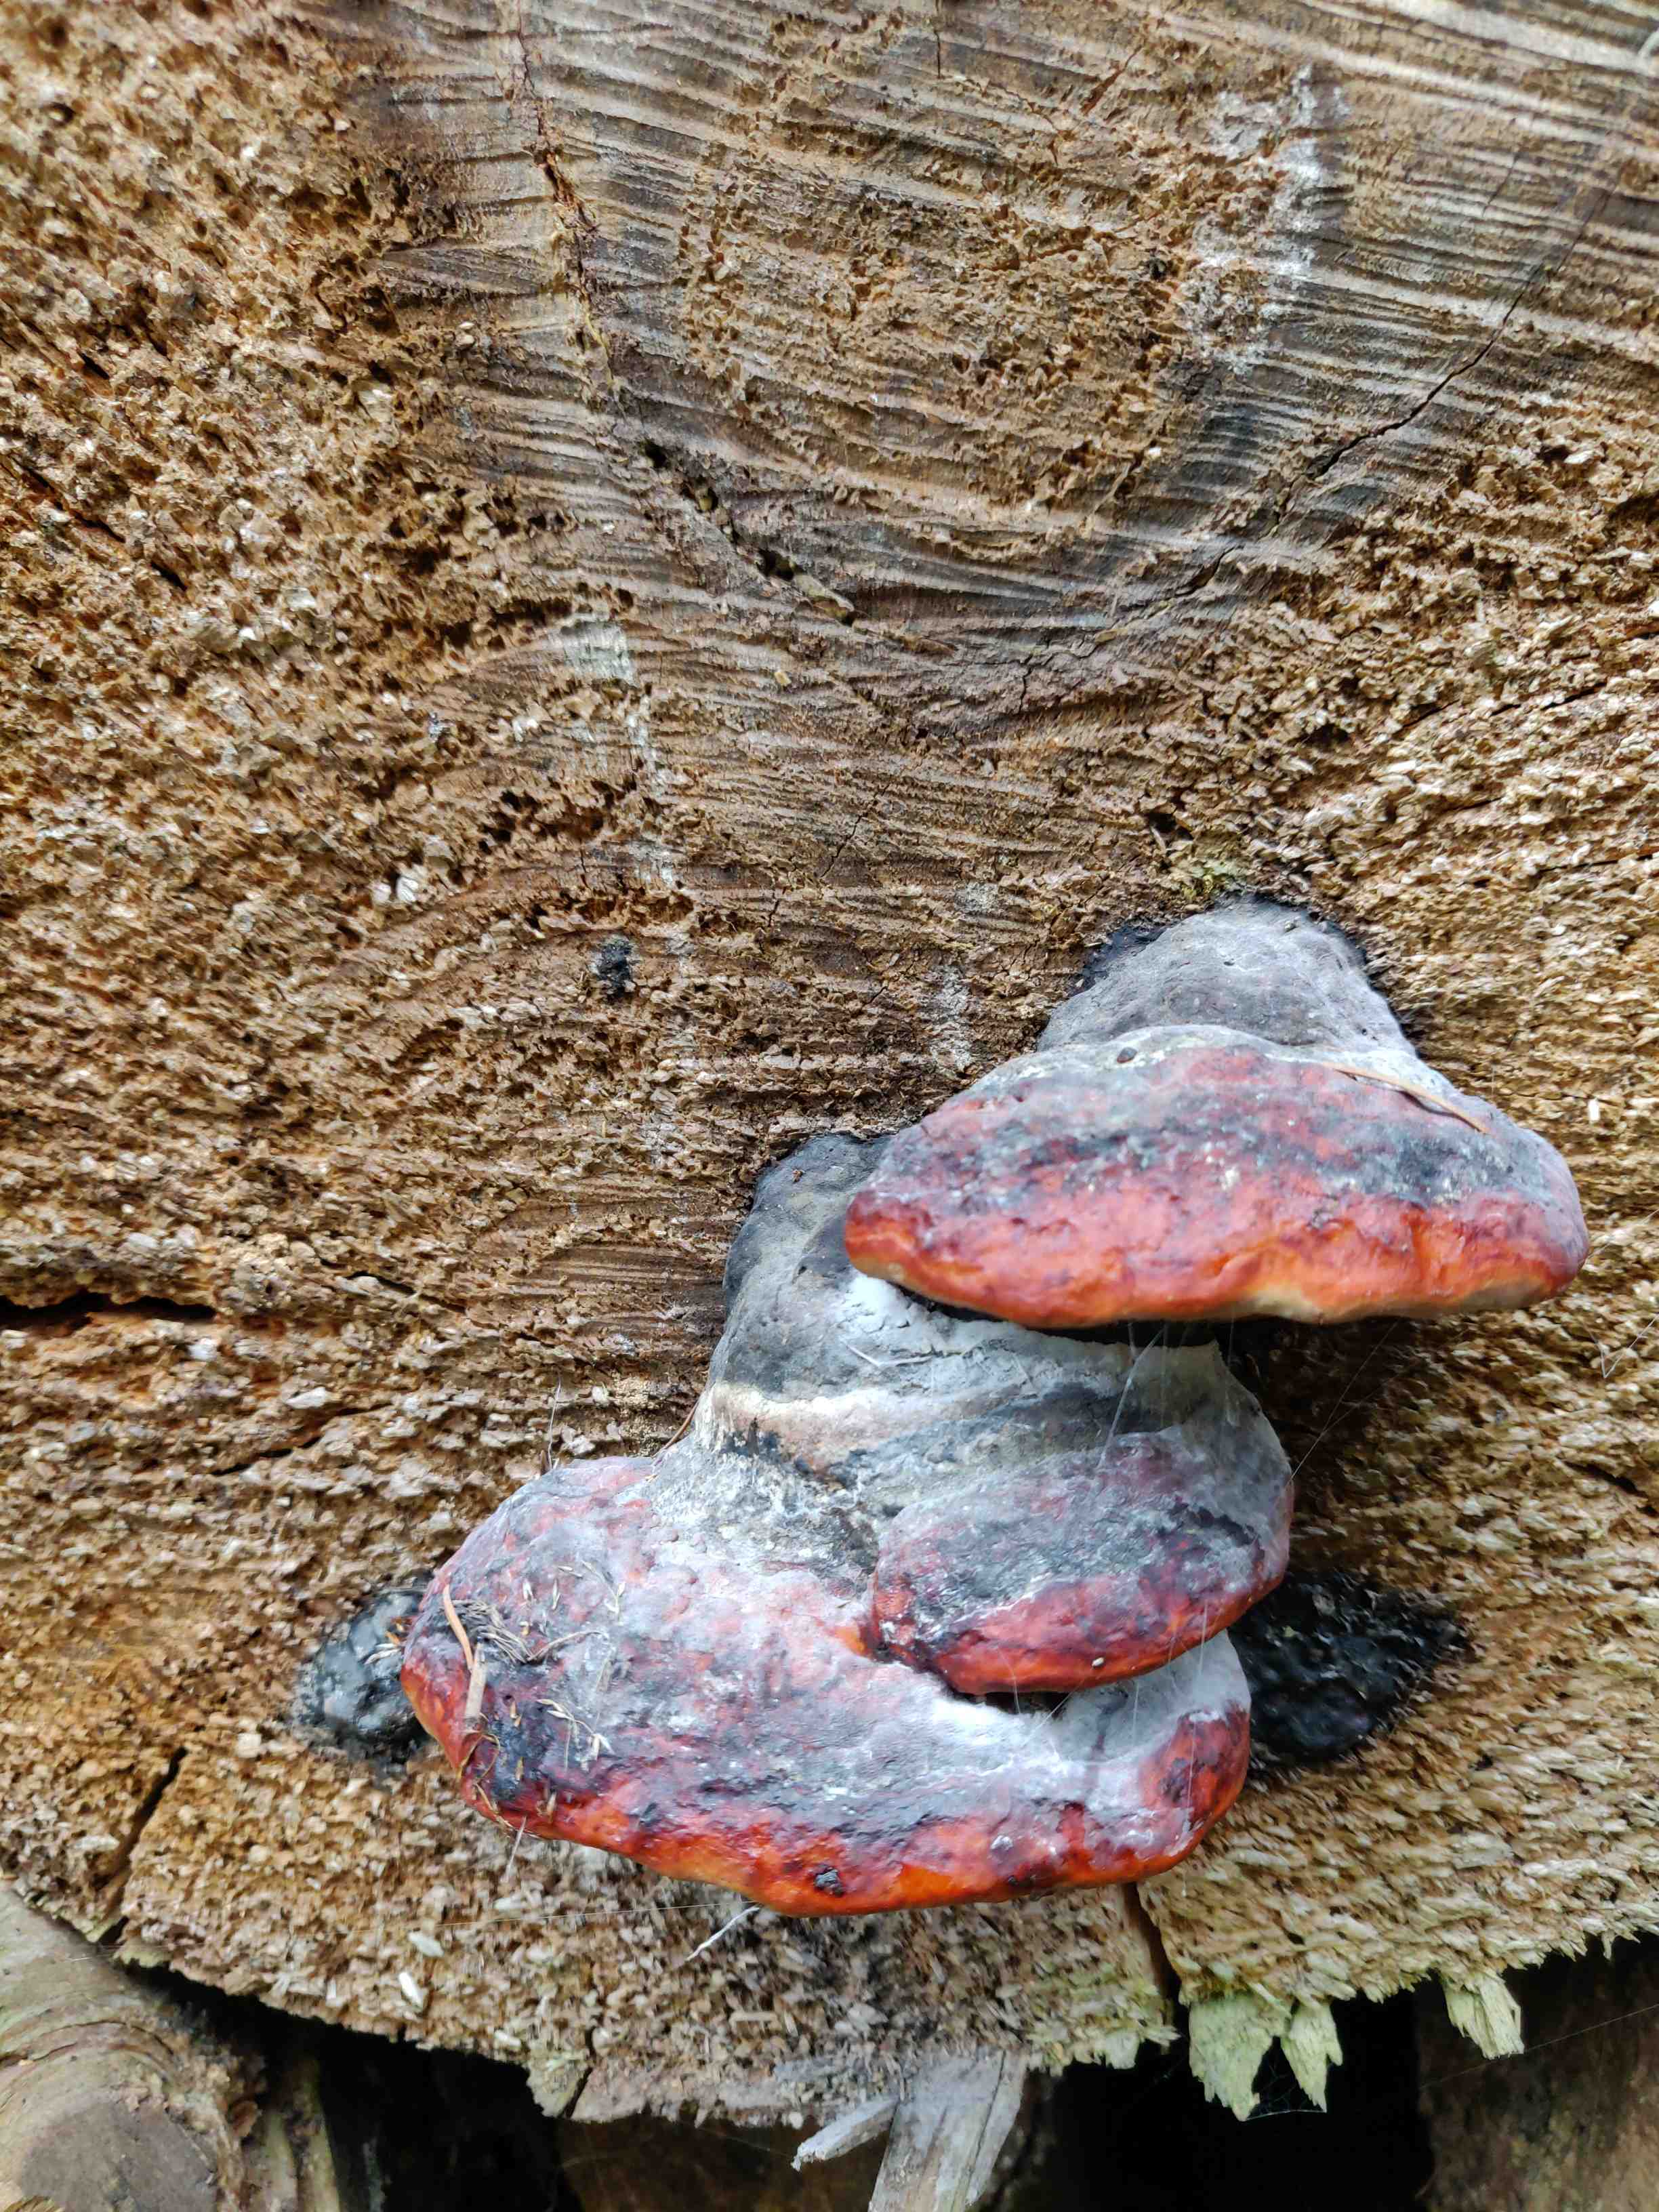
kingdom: Fungi
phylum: Basidiomycota
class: Agaricomycetes
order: Polyporales
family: Fomitopsidaceae
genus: Fomitopsis
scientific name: Fomitopsis pinicola
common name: randbæltet hovporesvamp
